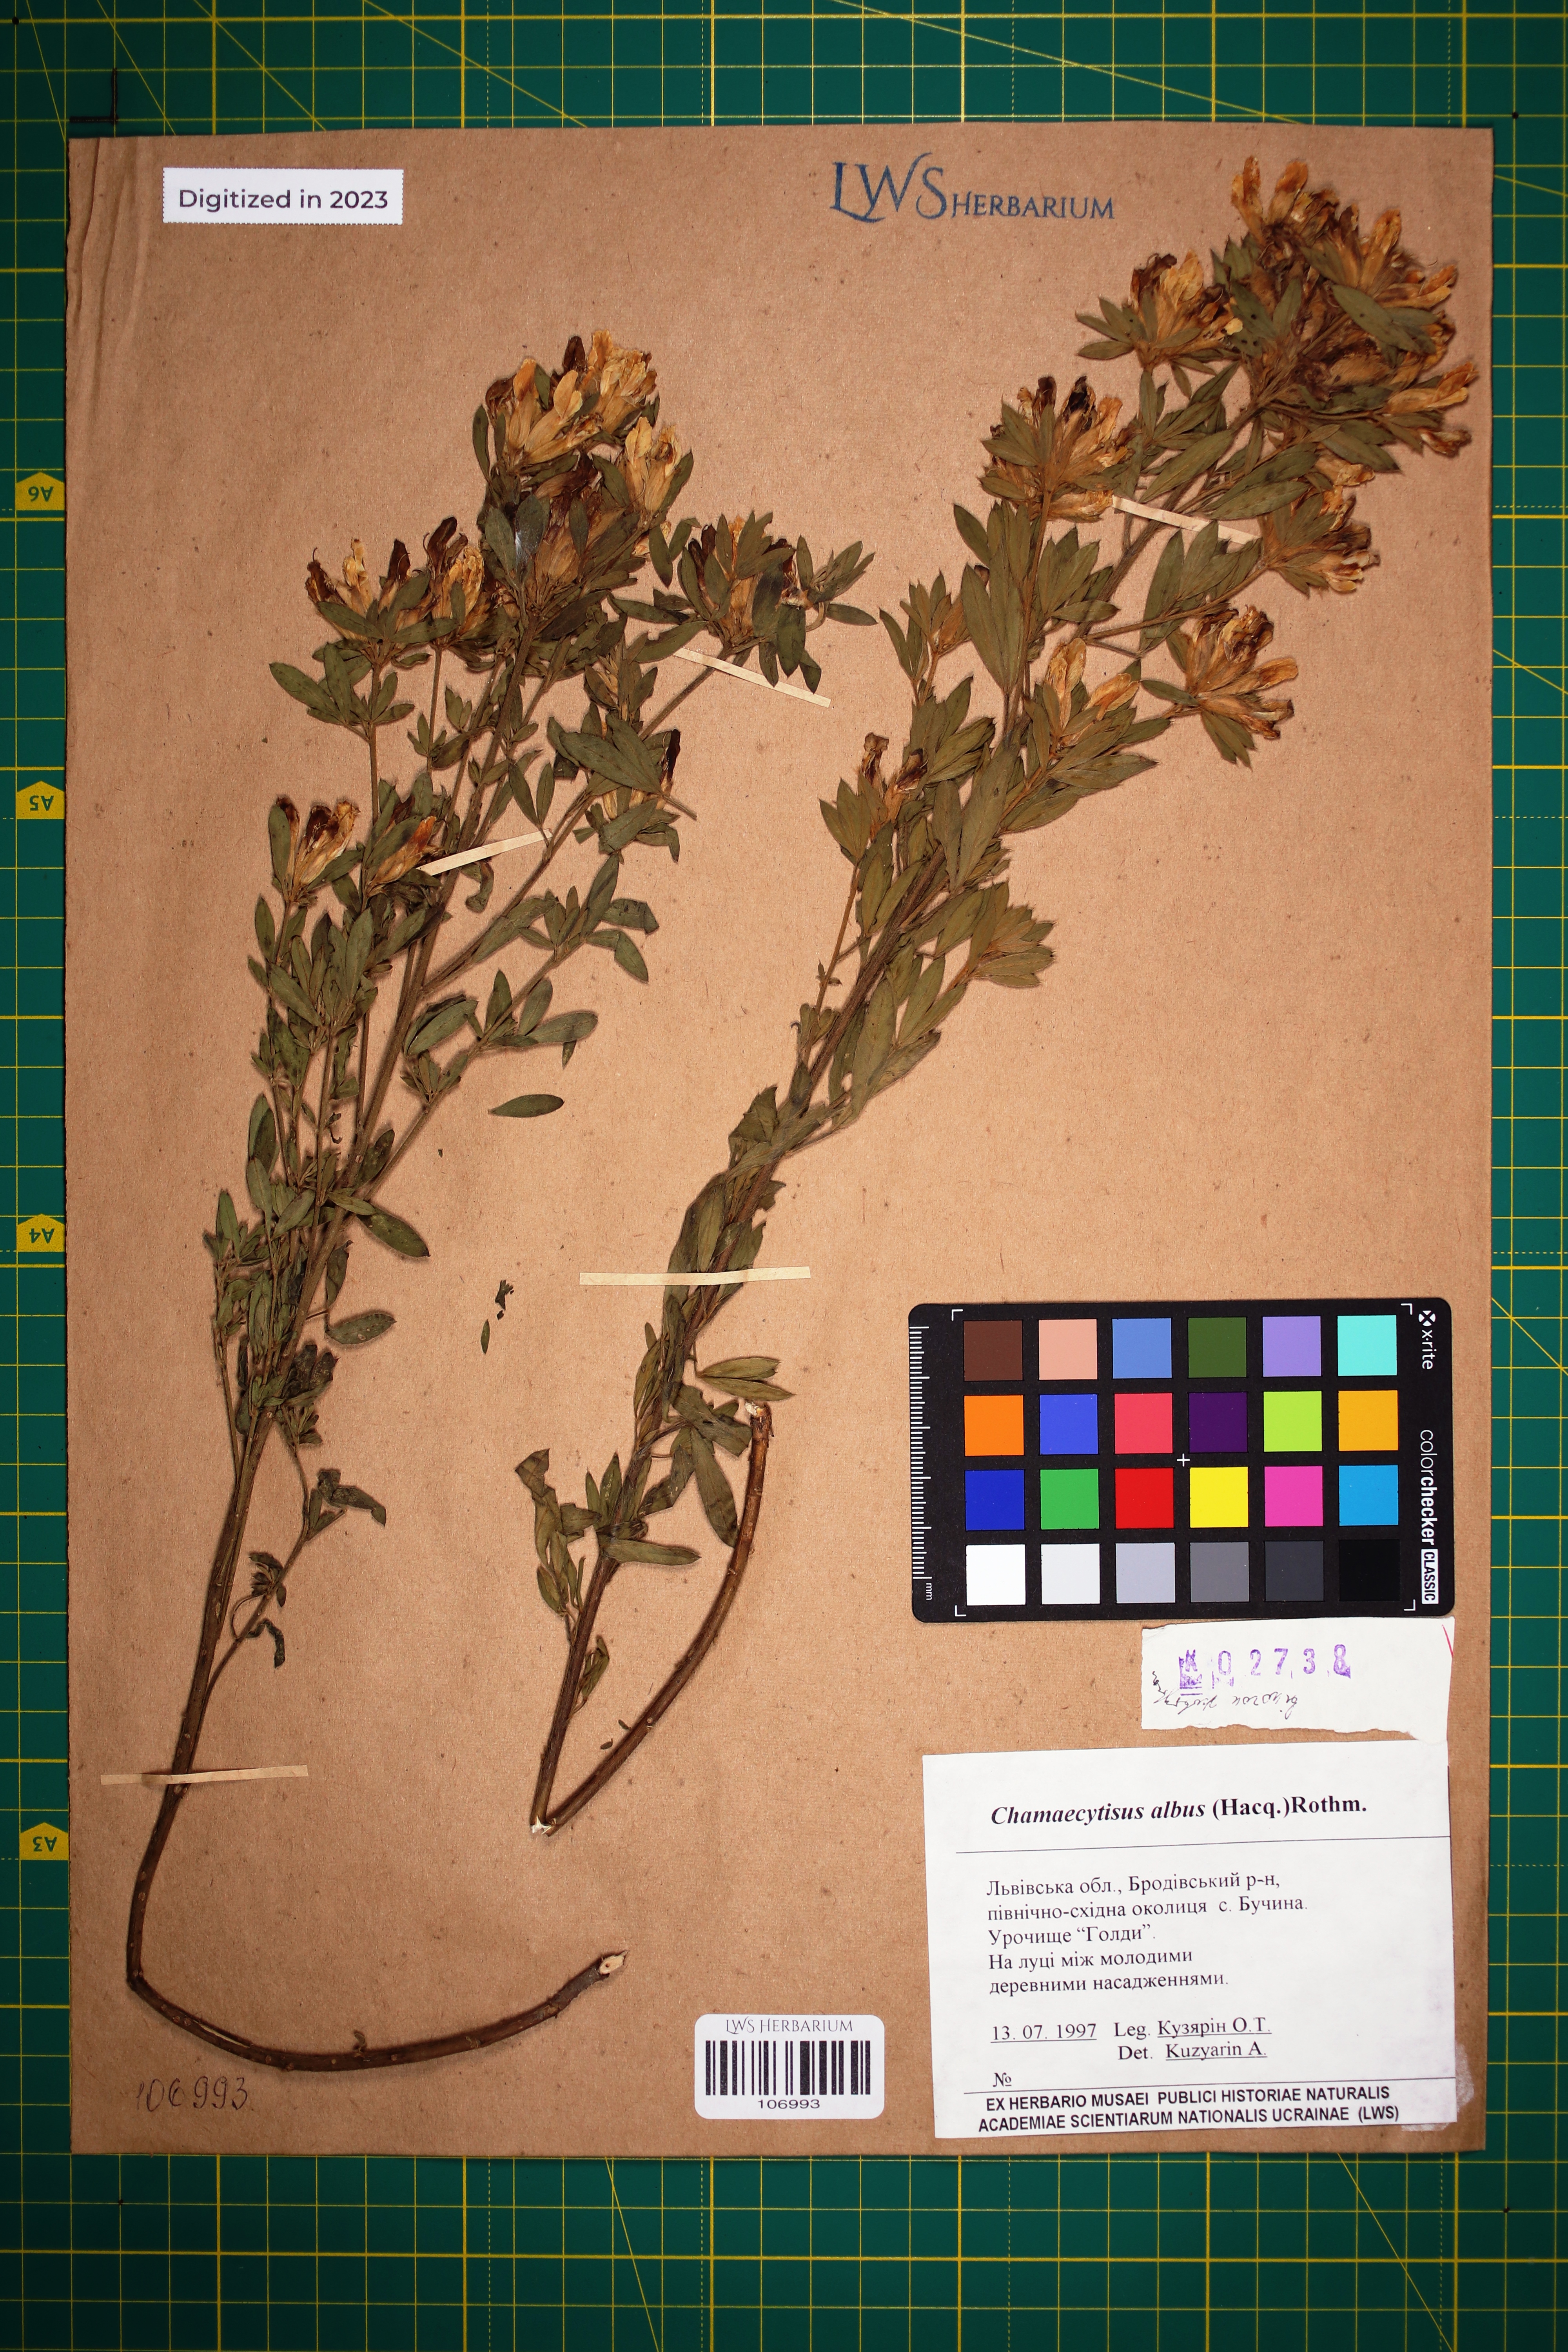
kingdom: Plantae
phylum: Tracheophyta
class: Magnoliopsida
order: Fabales
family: Fabaceae
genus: Chamaecytisus
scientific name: Chamaecytisus albus
